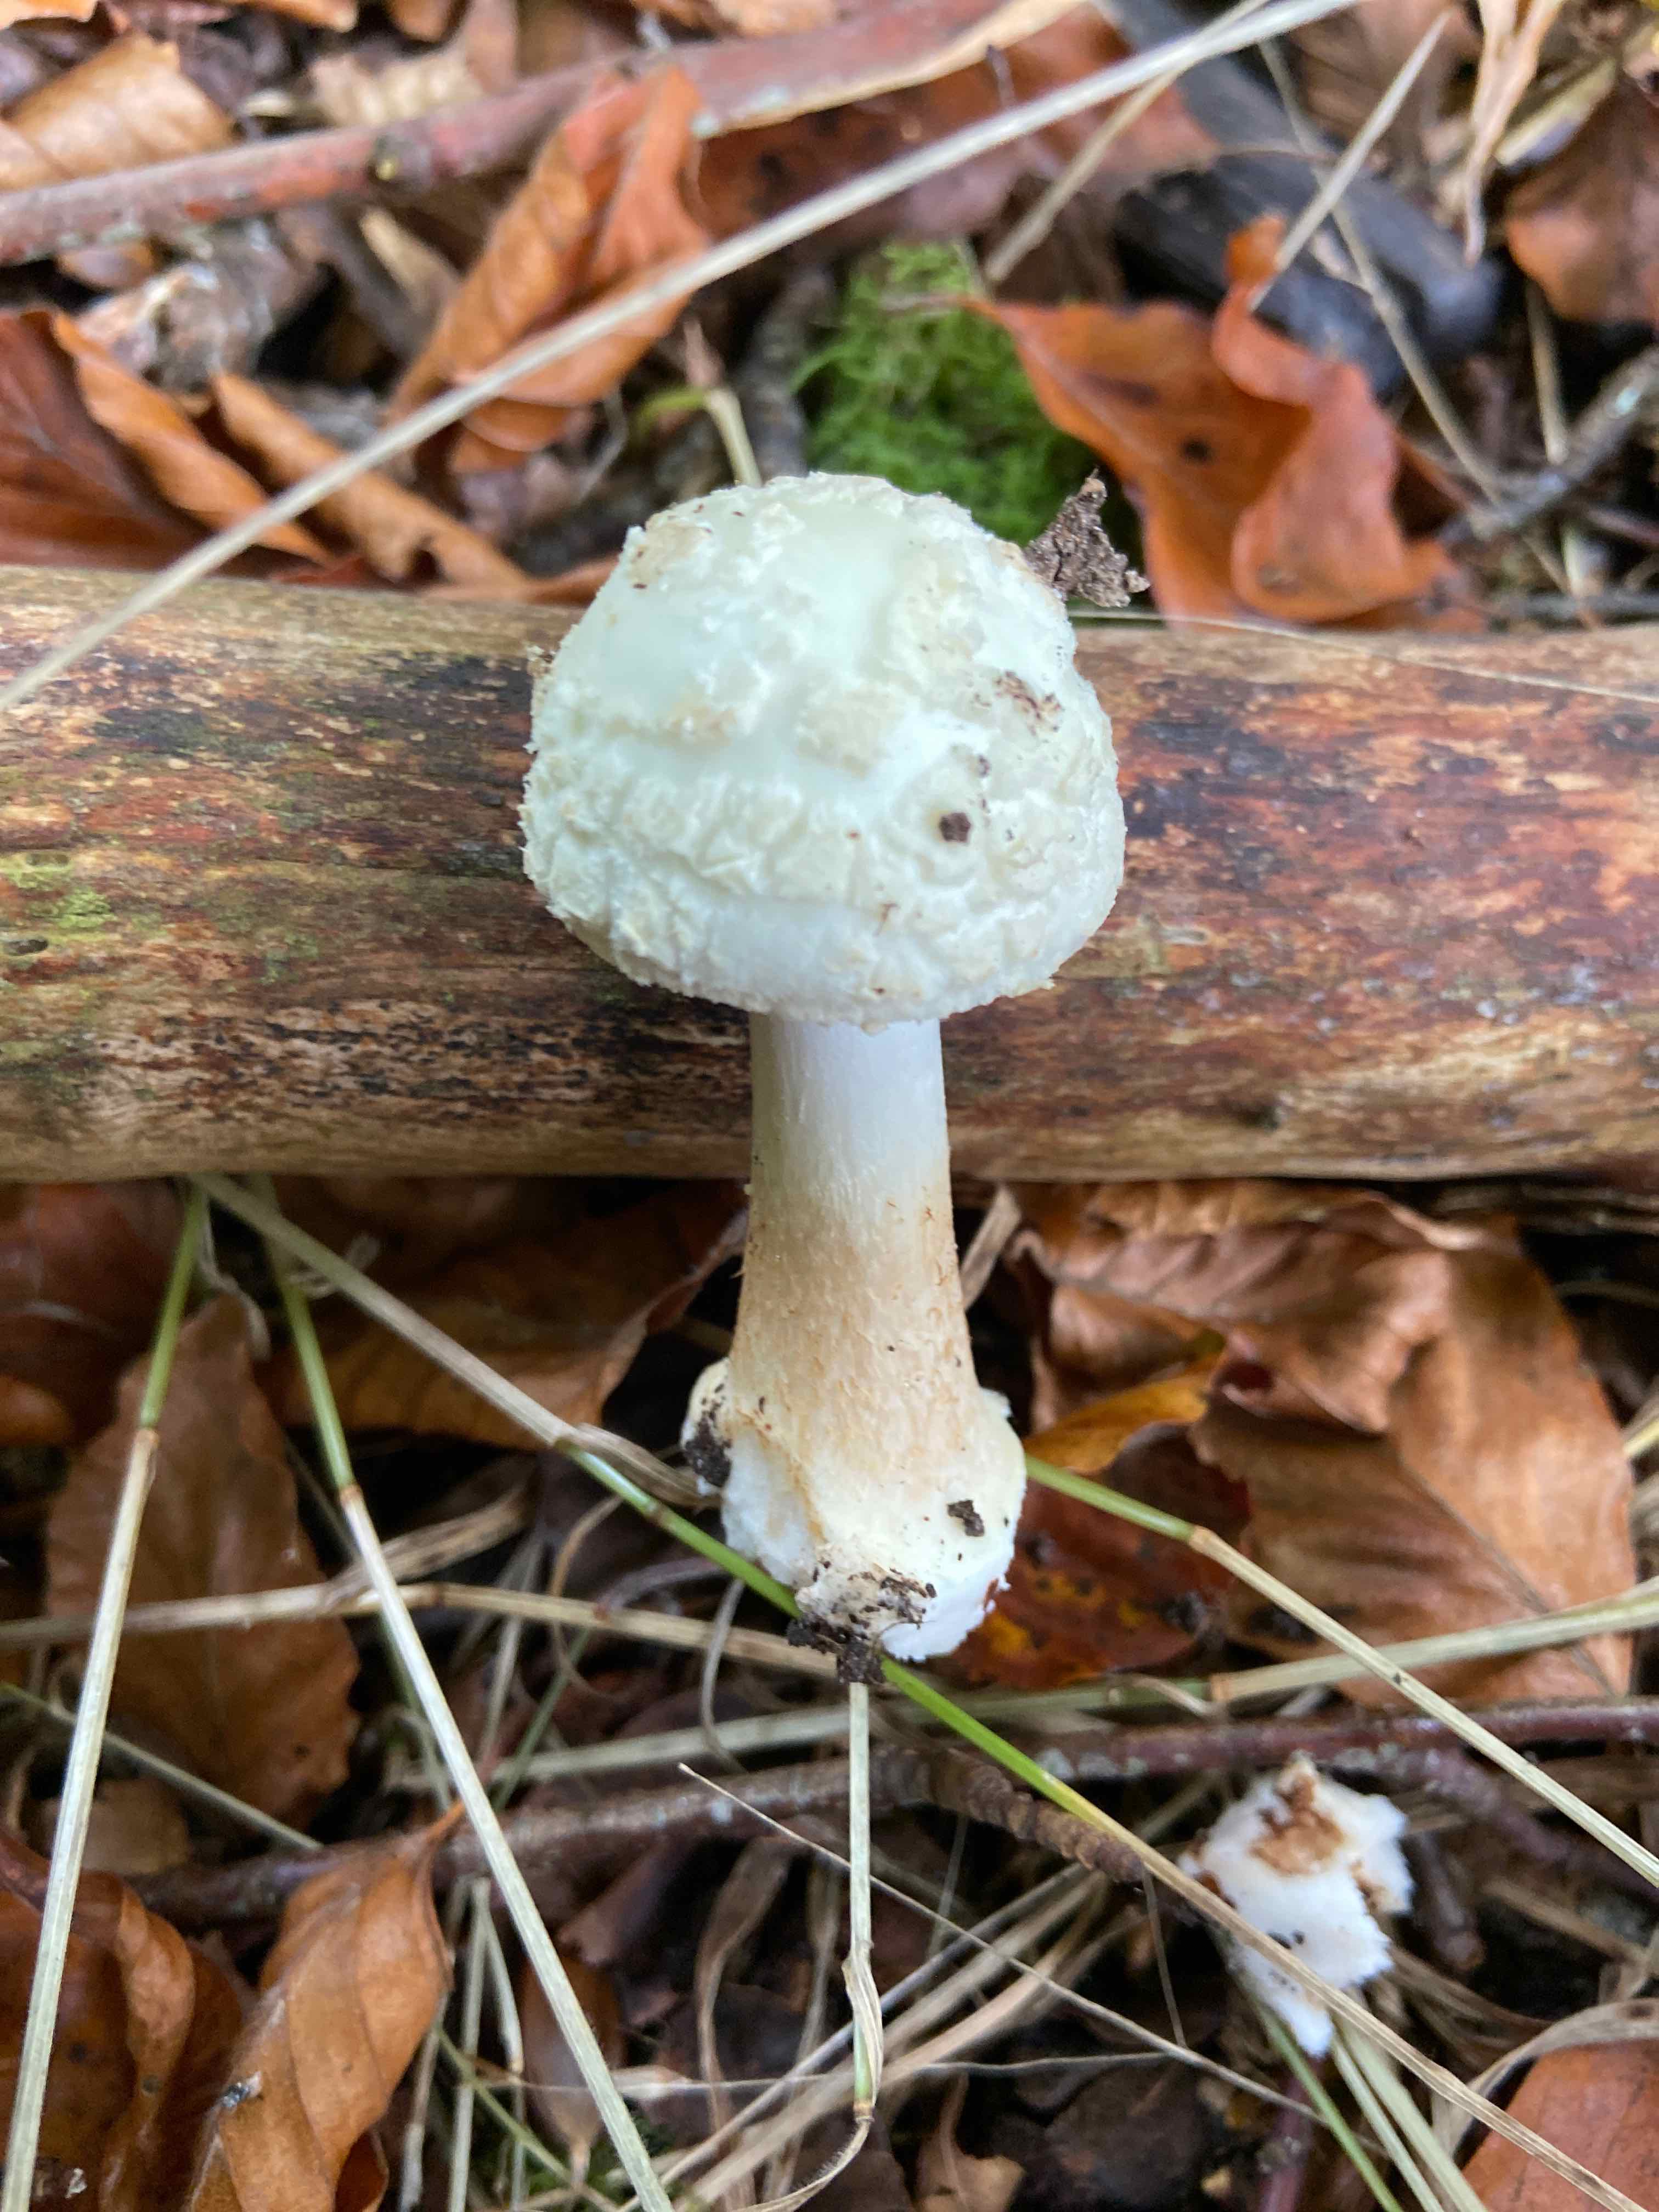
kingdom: Fungi
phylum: Basidiomycota
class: Agaricomycetes
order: Agaricales
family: Amanitaceae
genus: Amanita
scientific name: Amanita citrina
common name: kugleknoldet fluesvamp
